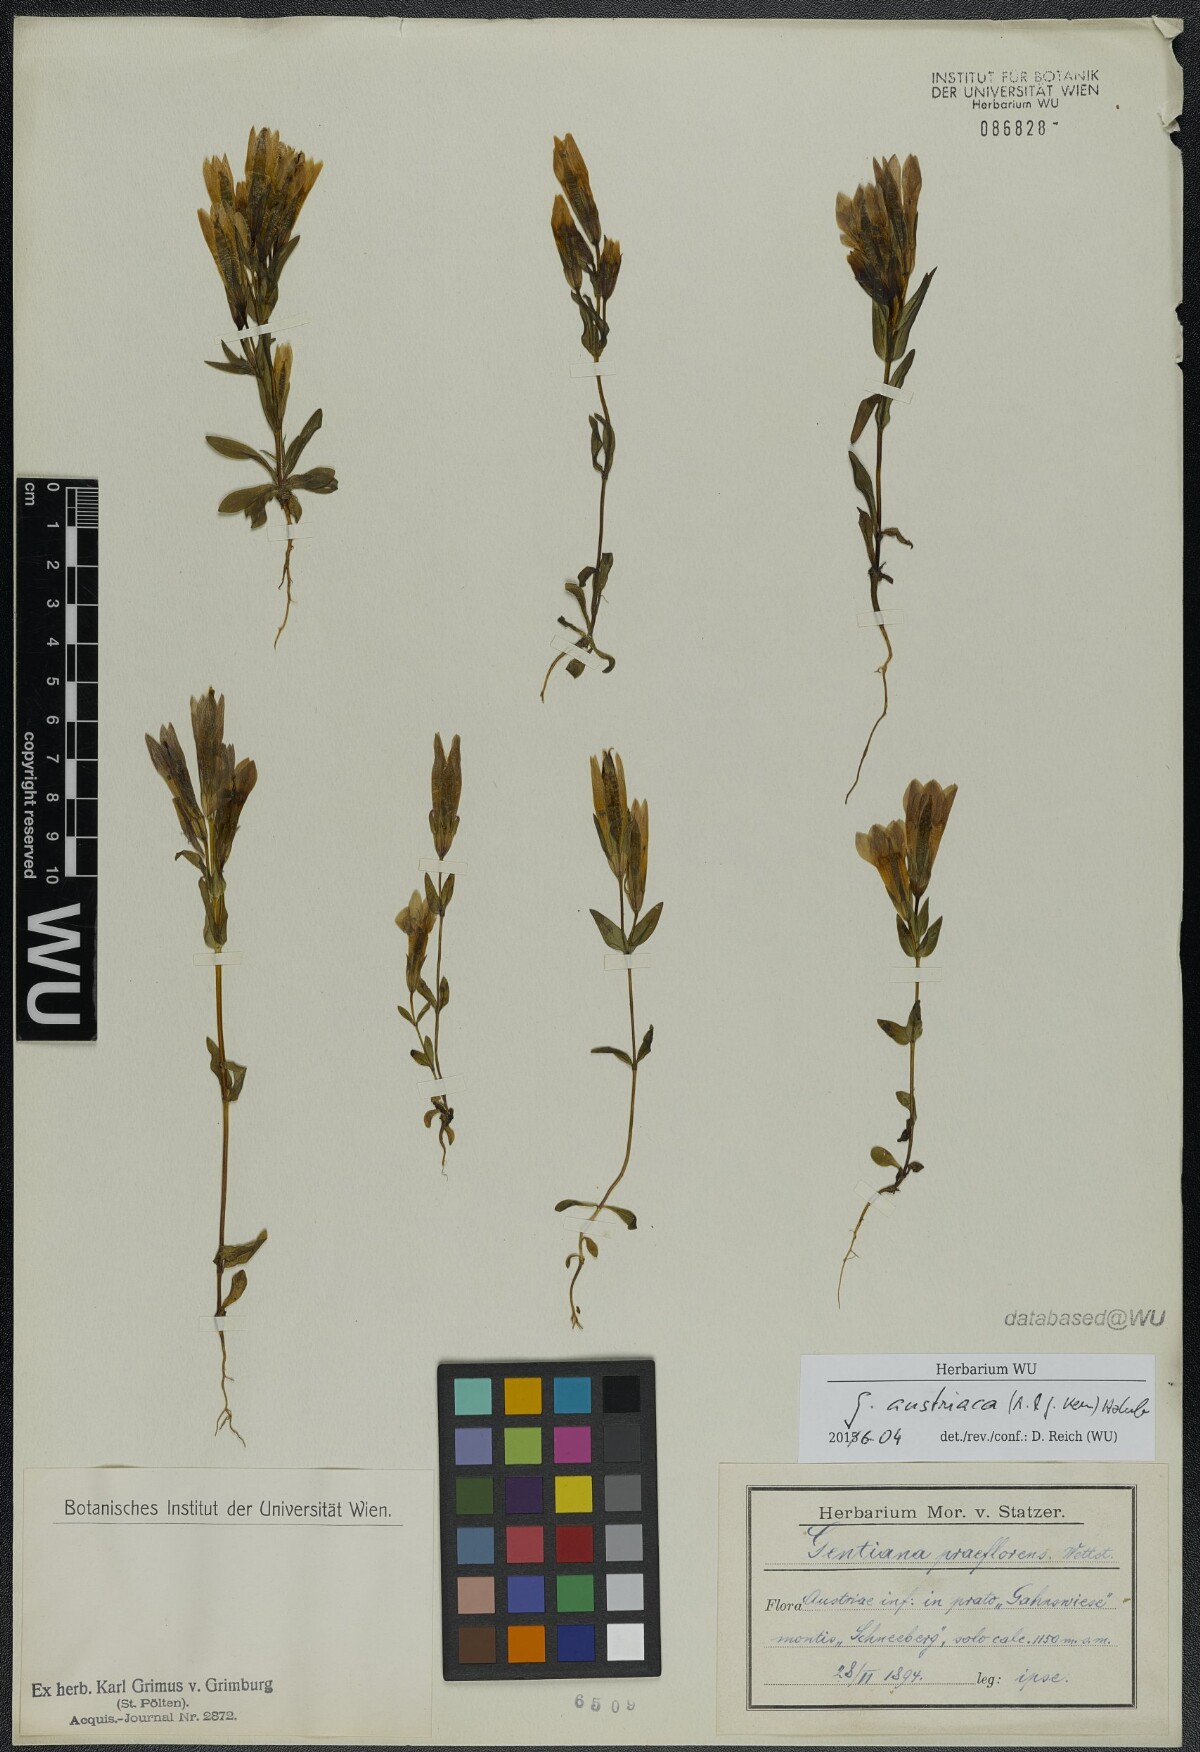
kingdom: Plantae
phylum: Tracheophyta
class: Magnoliopsida
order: Gentianales
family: Gentianaceae
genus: Gentianella
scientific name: Gentianella austriaca
